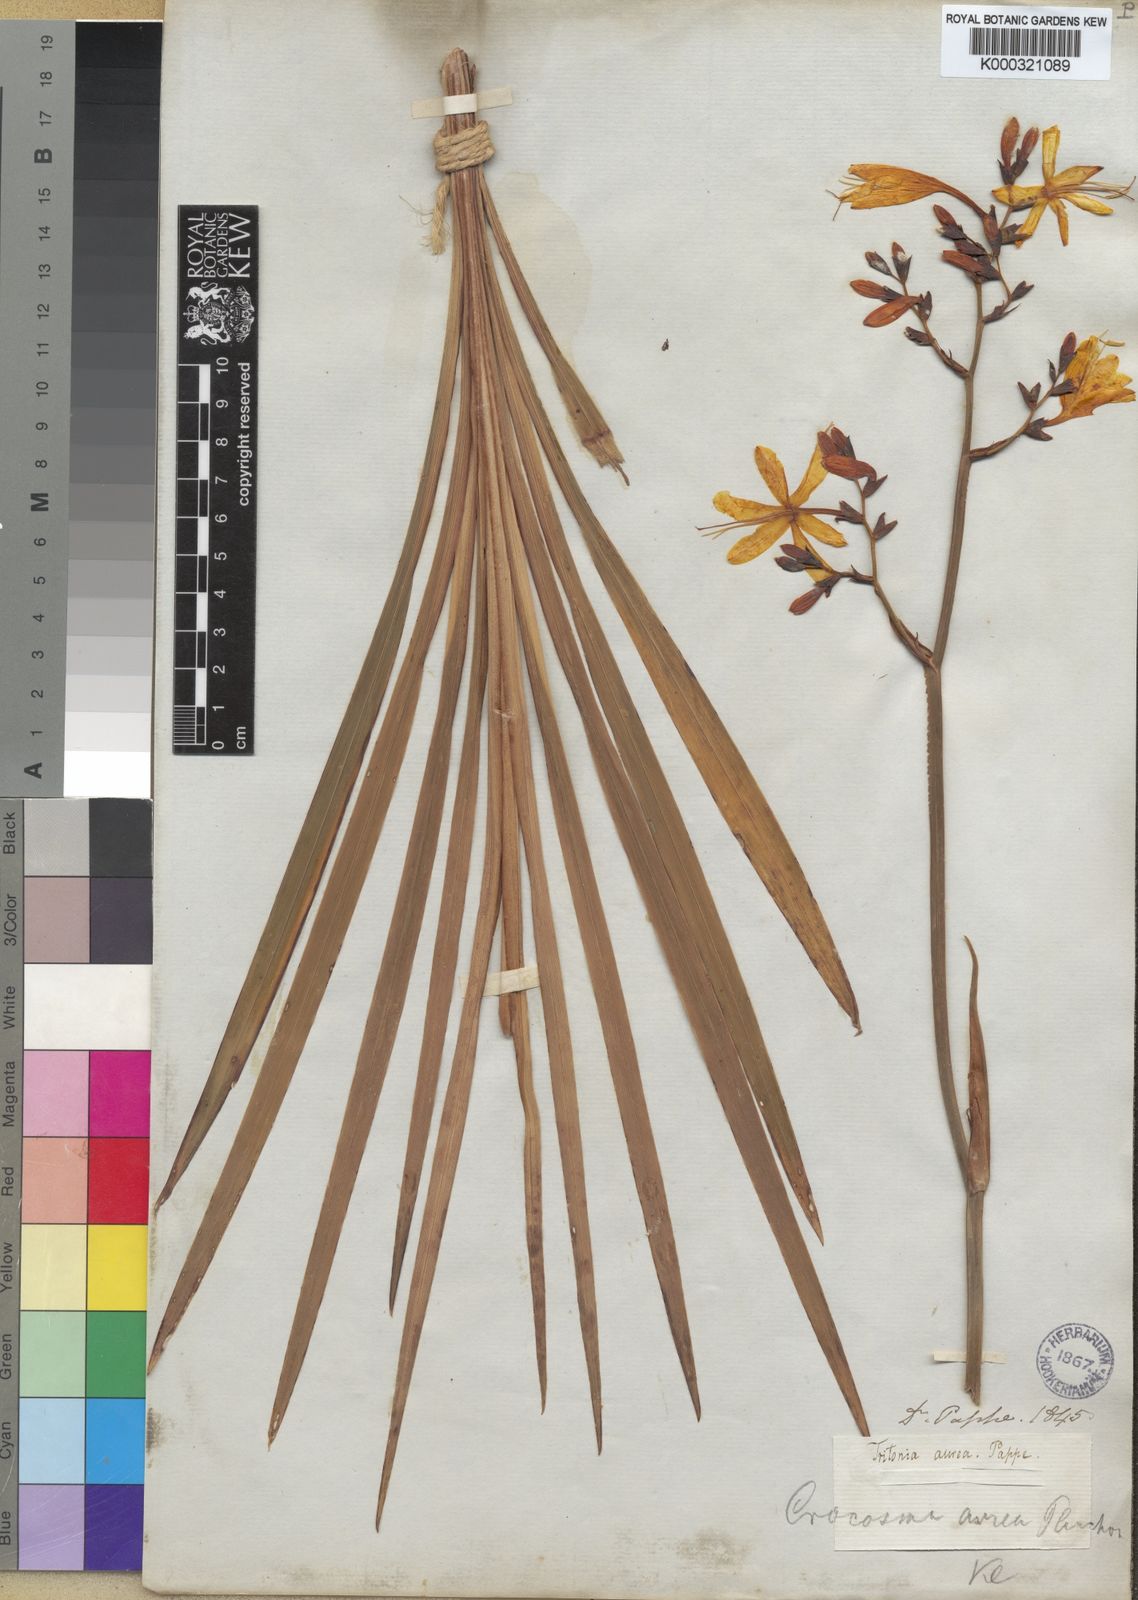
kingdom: Plantae
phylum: Tracheophyta
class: Liliopsida
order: Asparagales
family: Iridaceae
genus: Crocosmia
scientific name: Crocosmia aurea
